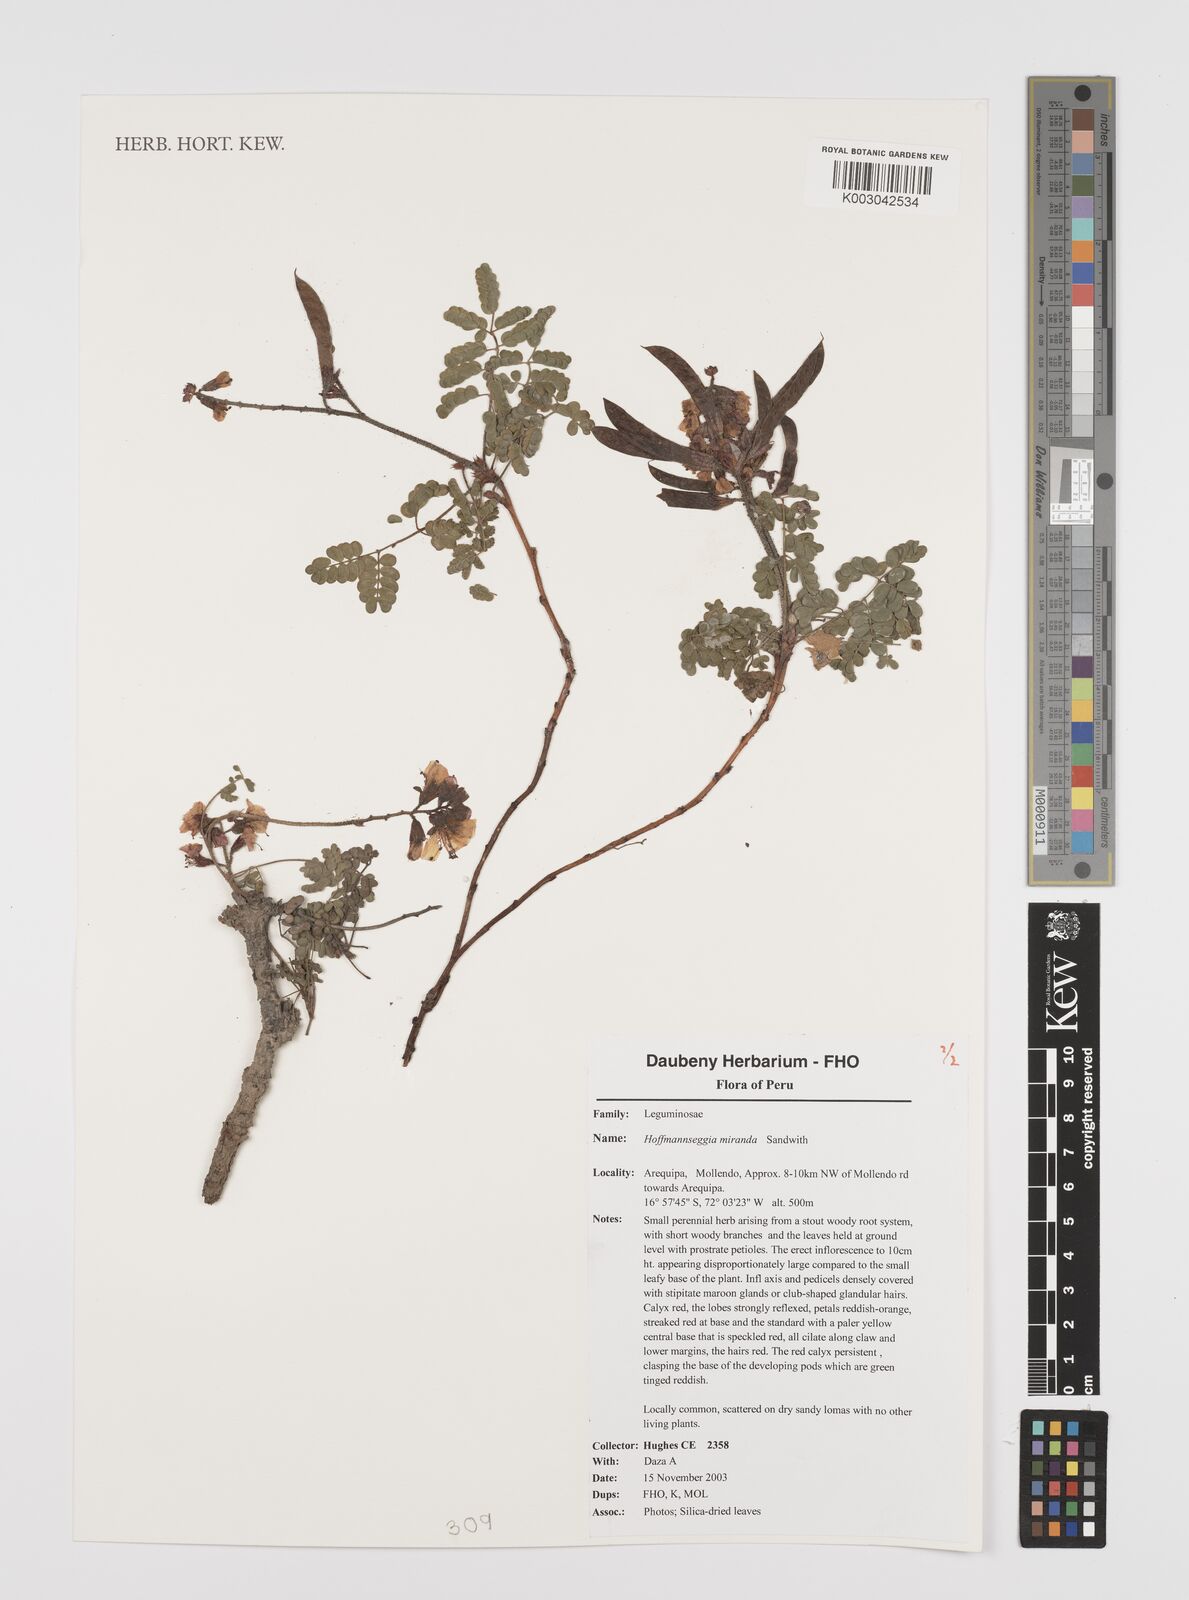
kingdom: Plantae
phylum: Tracheophyta
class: Magnoliopsida
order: Fabales
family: Fabaceae
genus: Hoffmannseggia
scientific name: Hoffmannseggia miranda
